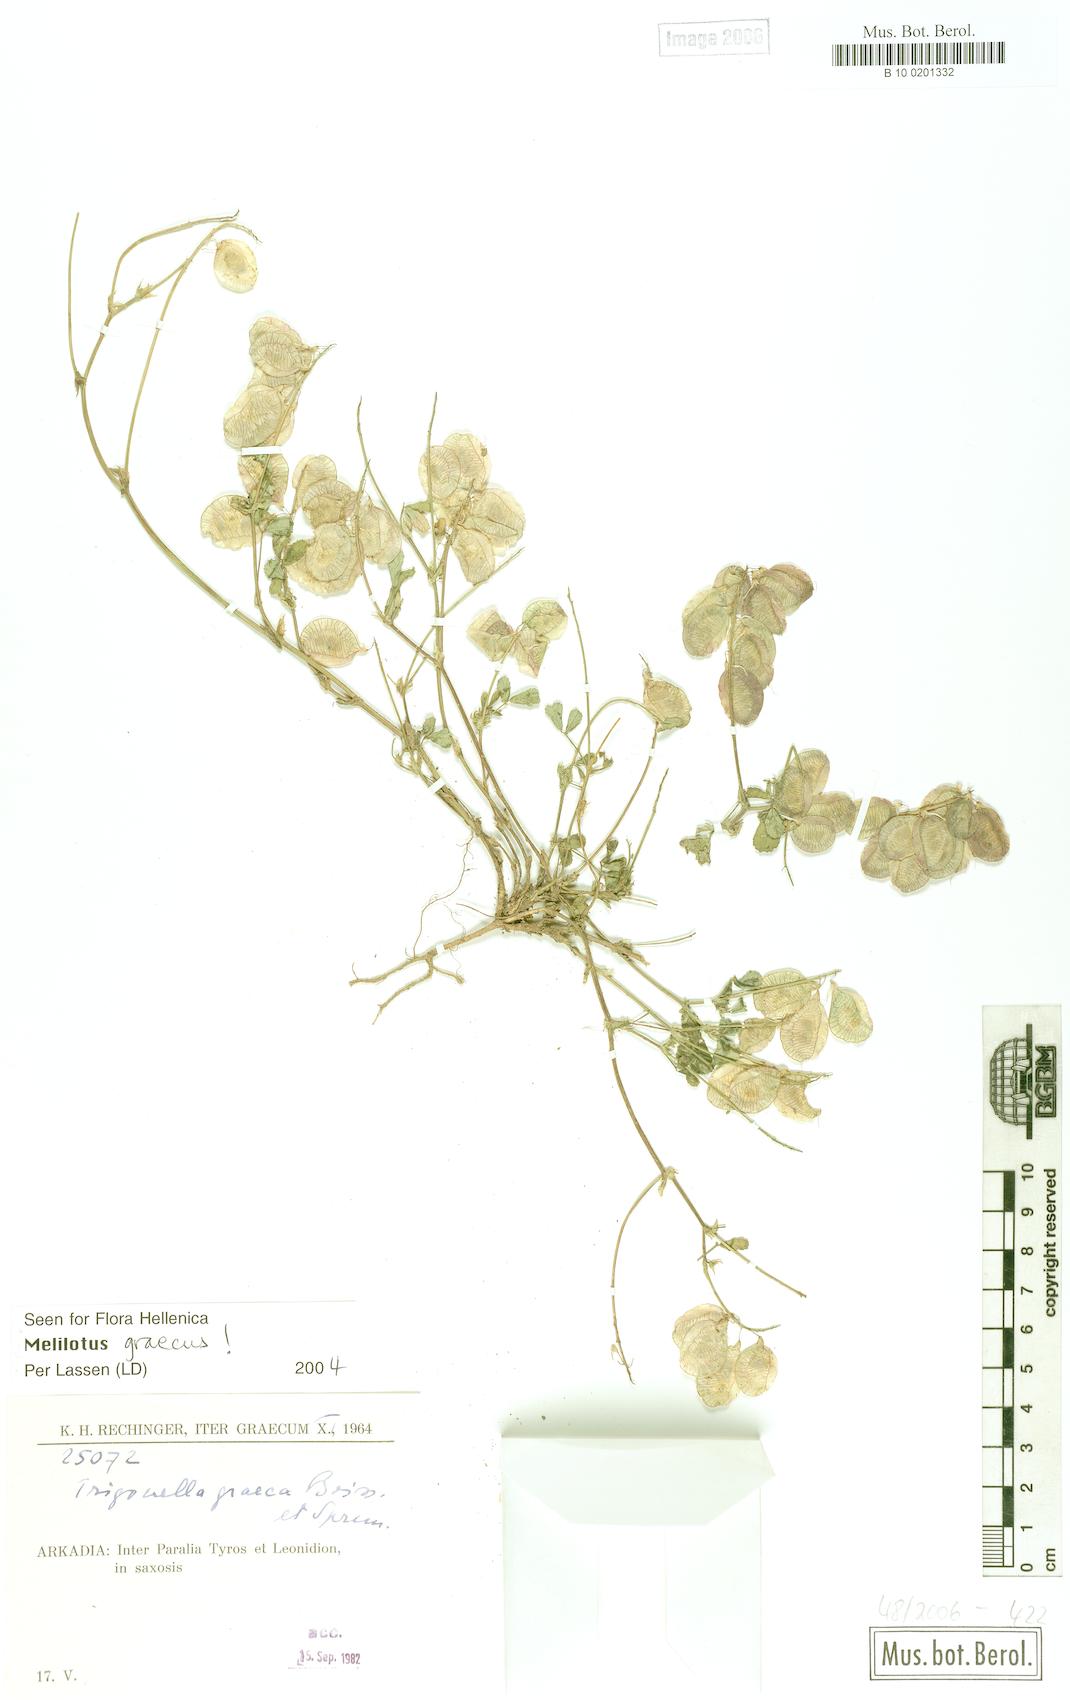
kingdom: Plantae
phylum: Tracheophyta
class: Magnoliopsida
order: Fabales
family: Fabaceae
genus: Trigonella
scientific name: Trigonella graeca
